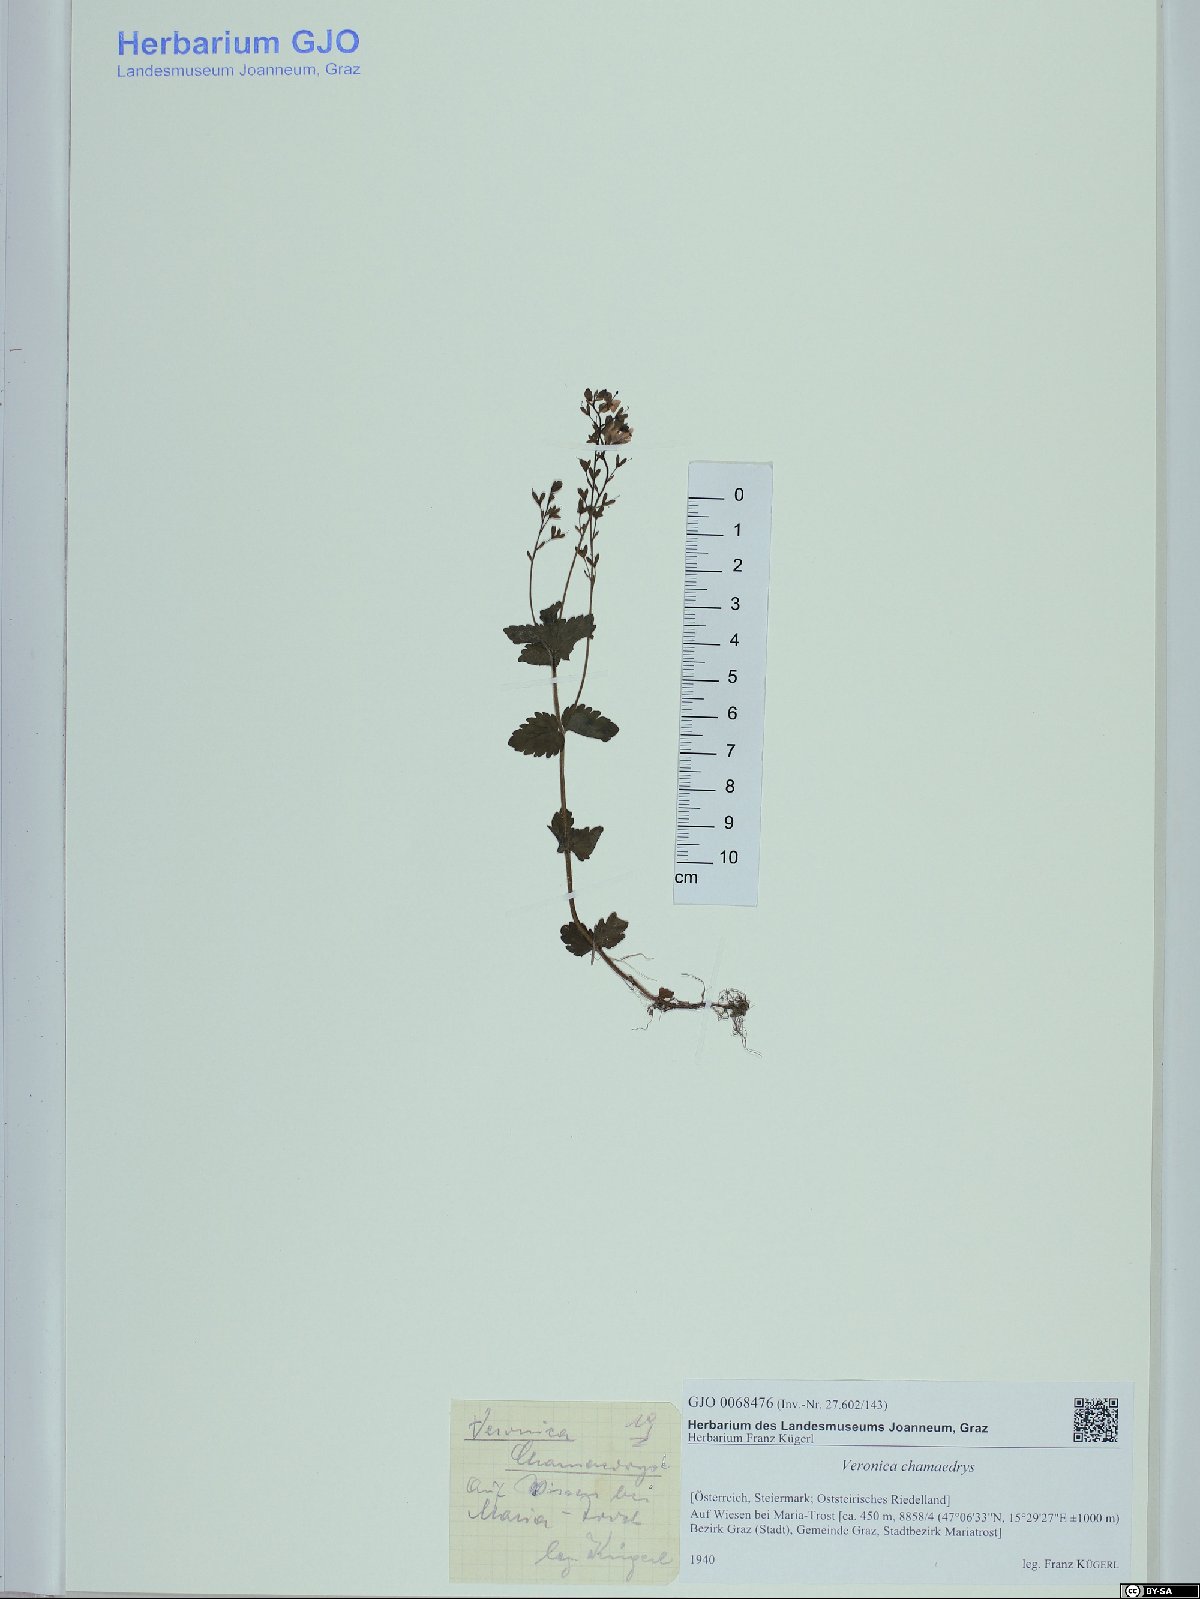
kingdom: Plantae
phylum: Tracheophyta
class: Magnoliopsida
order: Lamiales
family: Plantaginaceae
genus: Veronica
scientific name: Veronica chamaedrys
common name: Germander speedwell
